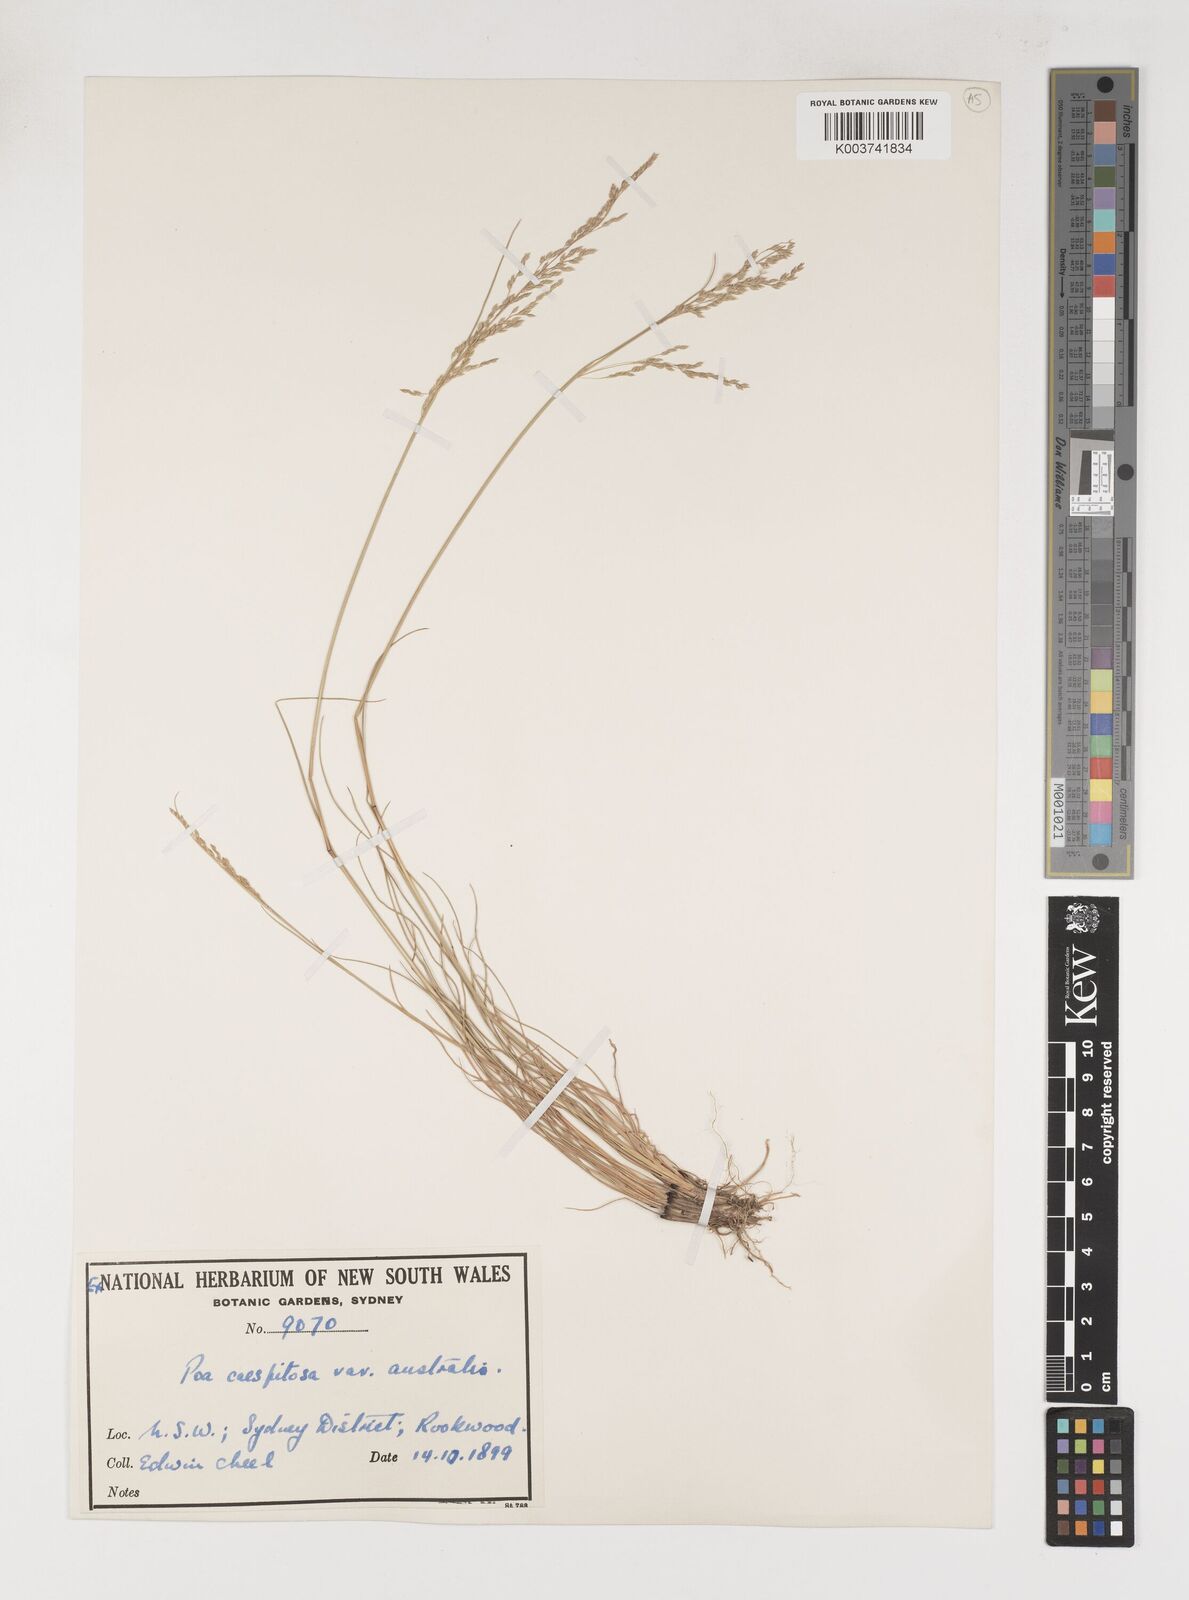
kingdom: Plantae
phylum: Tracheophyta
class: Liliopsida
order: Poales
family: Poaceae
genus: Poa
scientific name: Poa sieberiana
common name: Tussock poa
